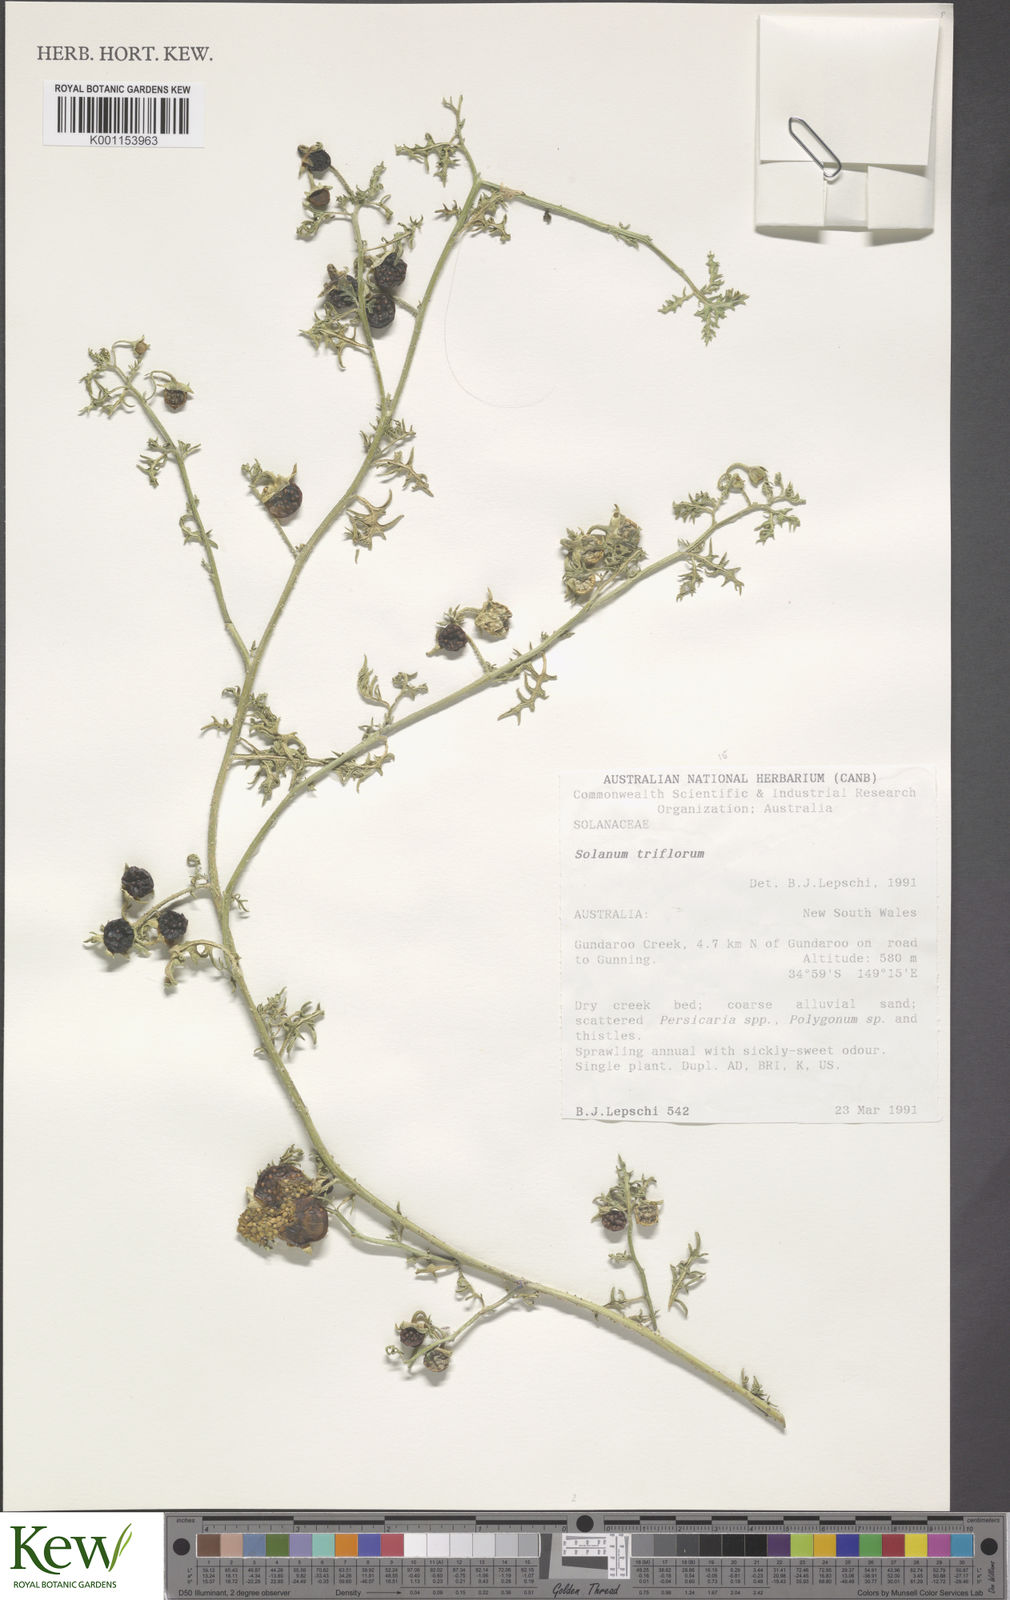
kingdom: Plantae
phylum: Tracheophyta
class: Magnoliopsida
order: Solanales
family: Solanaceae
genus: Solanum
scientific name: Solanum triflorum
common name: Small nightshade
